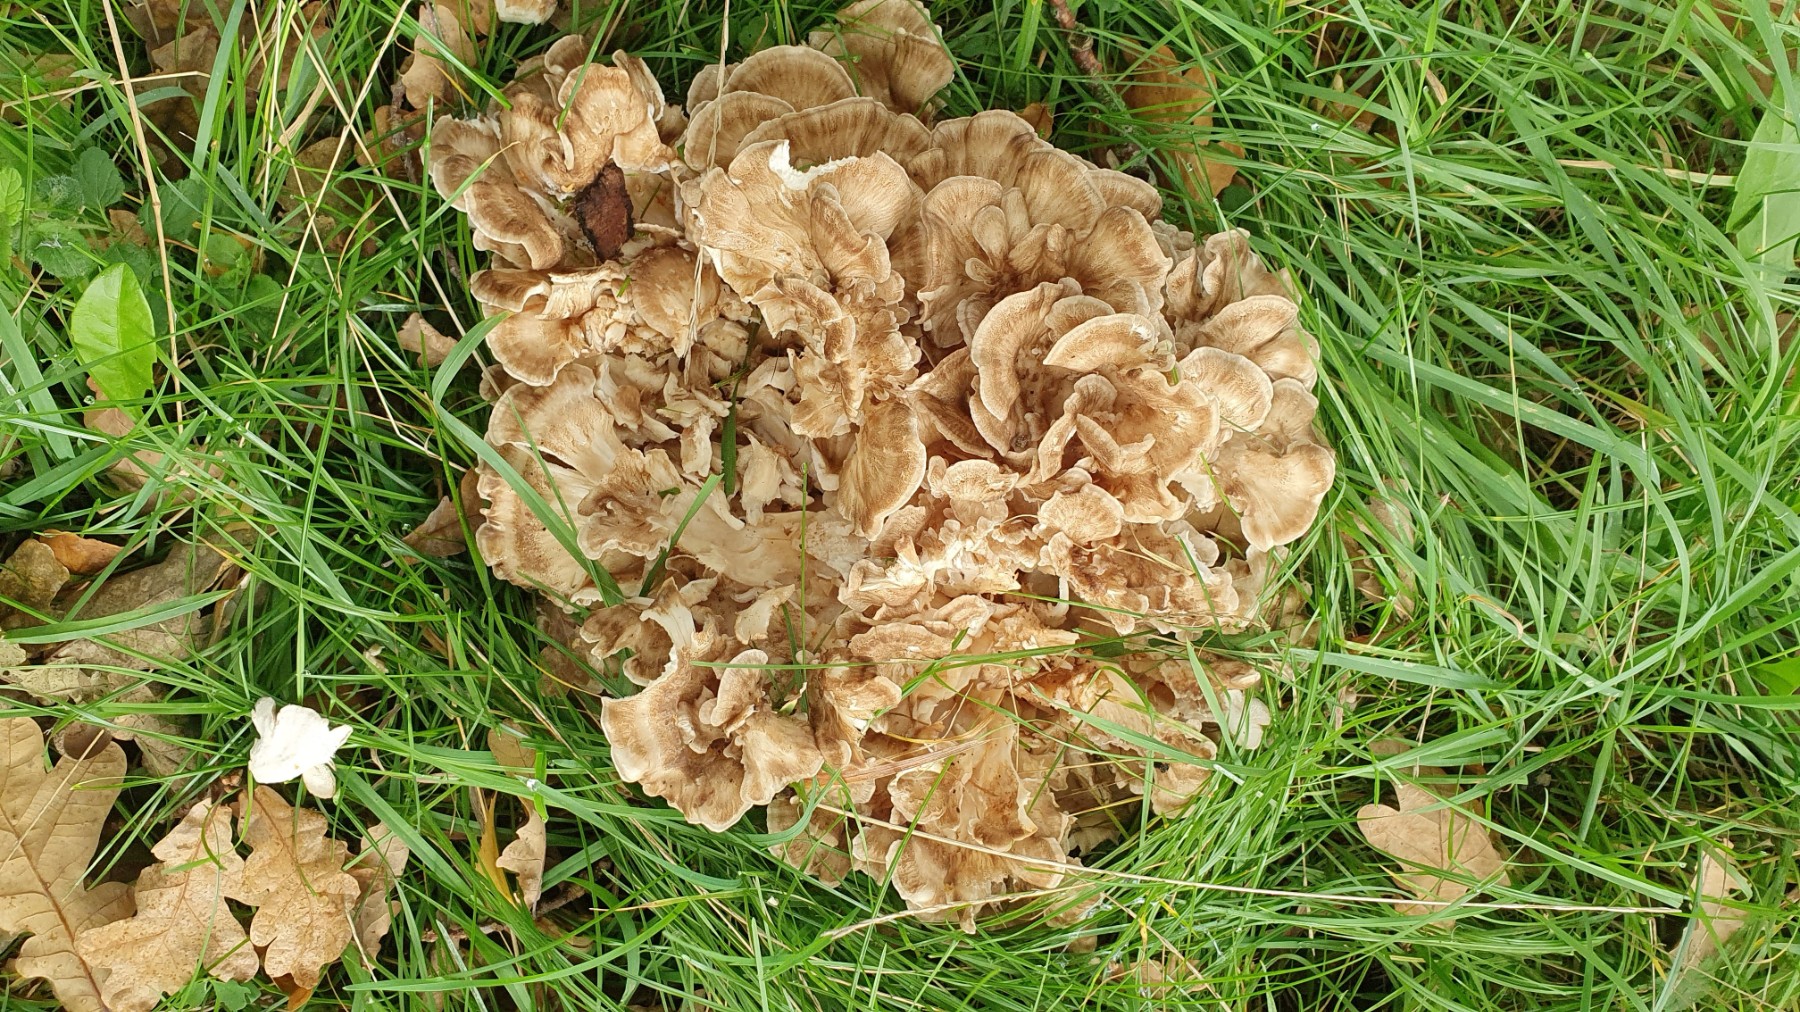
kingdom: Fungi
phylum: Basidiomycota
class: Agaricomycetes
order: Polyporales
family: Grifolaceae
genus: Grifola
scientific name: Grifola frondosa
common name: tueporesvamp
